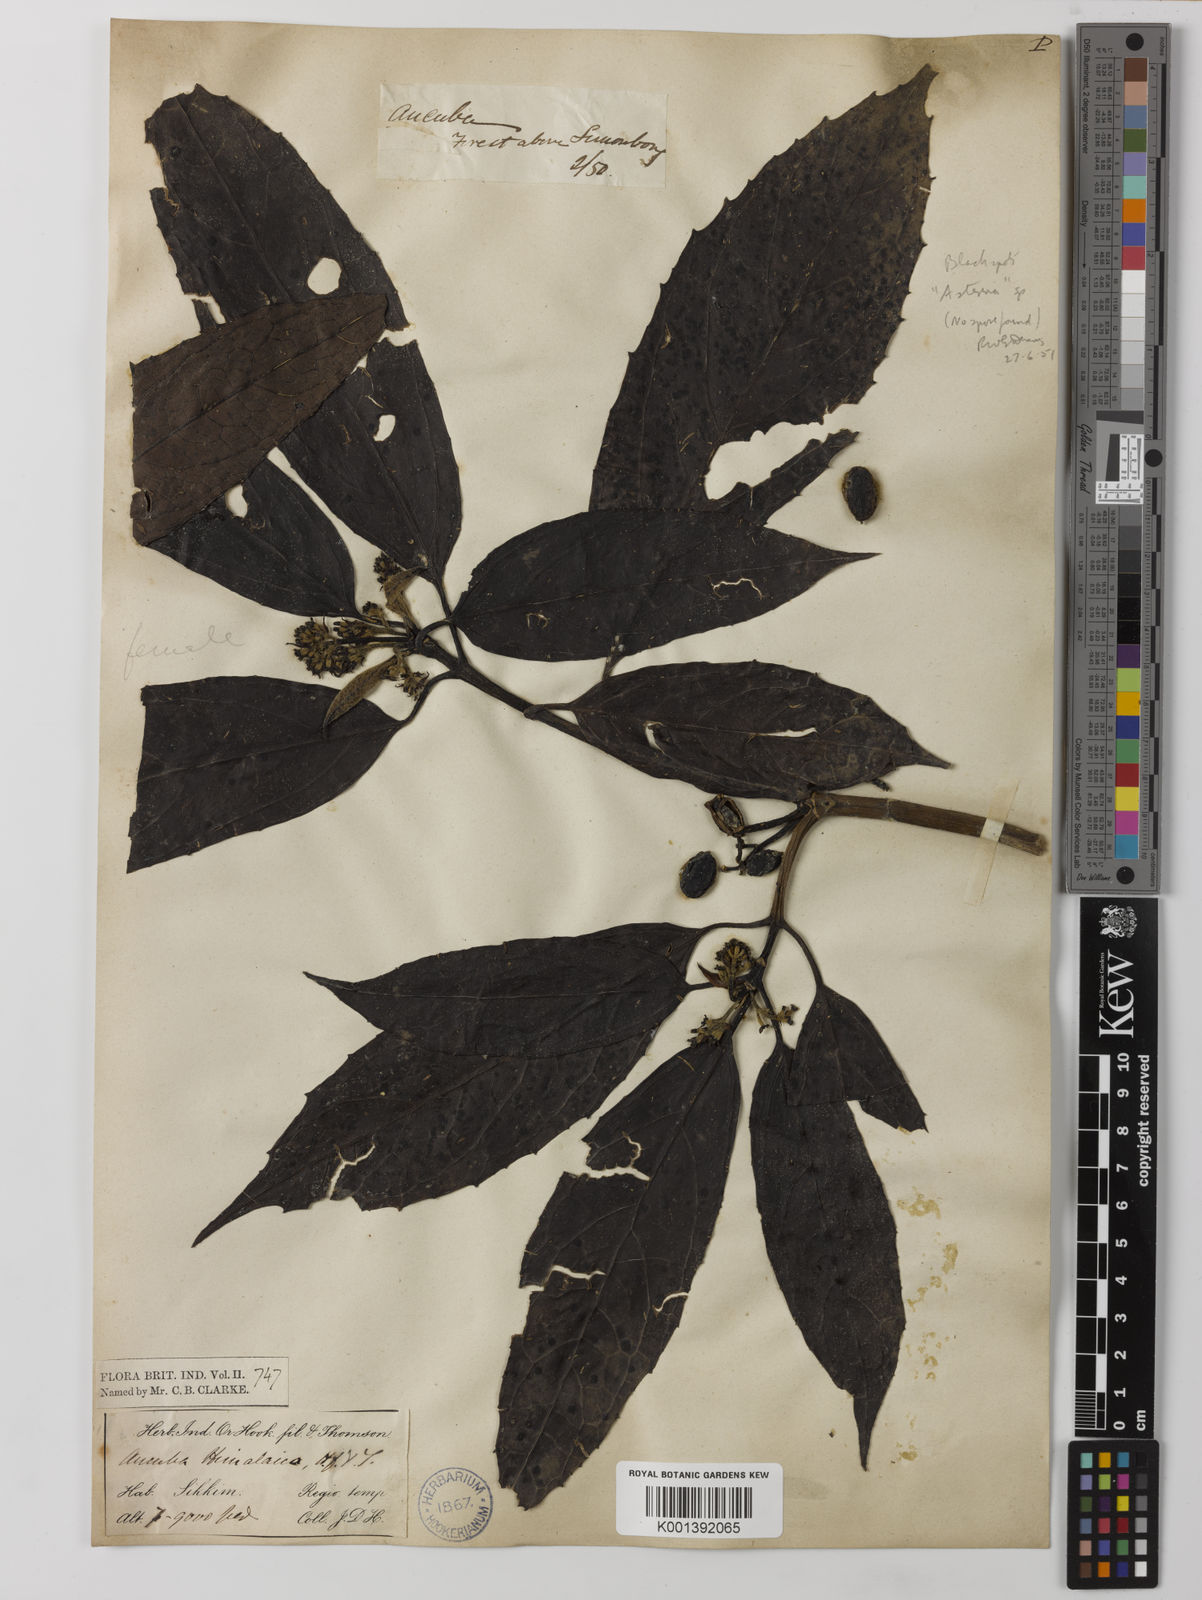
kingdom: Plantae
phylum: Tracheophyta
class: Magnoliopsida
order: Garryales
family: Garryaceae
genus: Aucuba
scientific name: Aucuba himalaica
